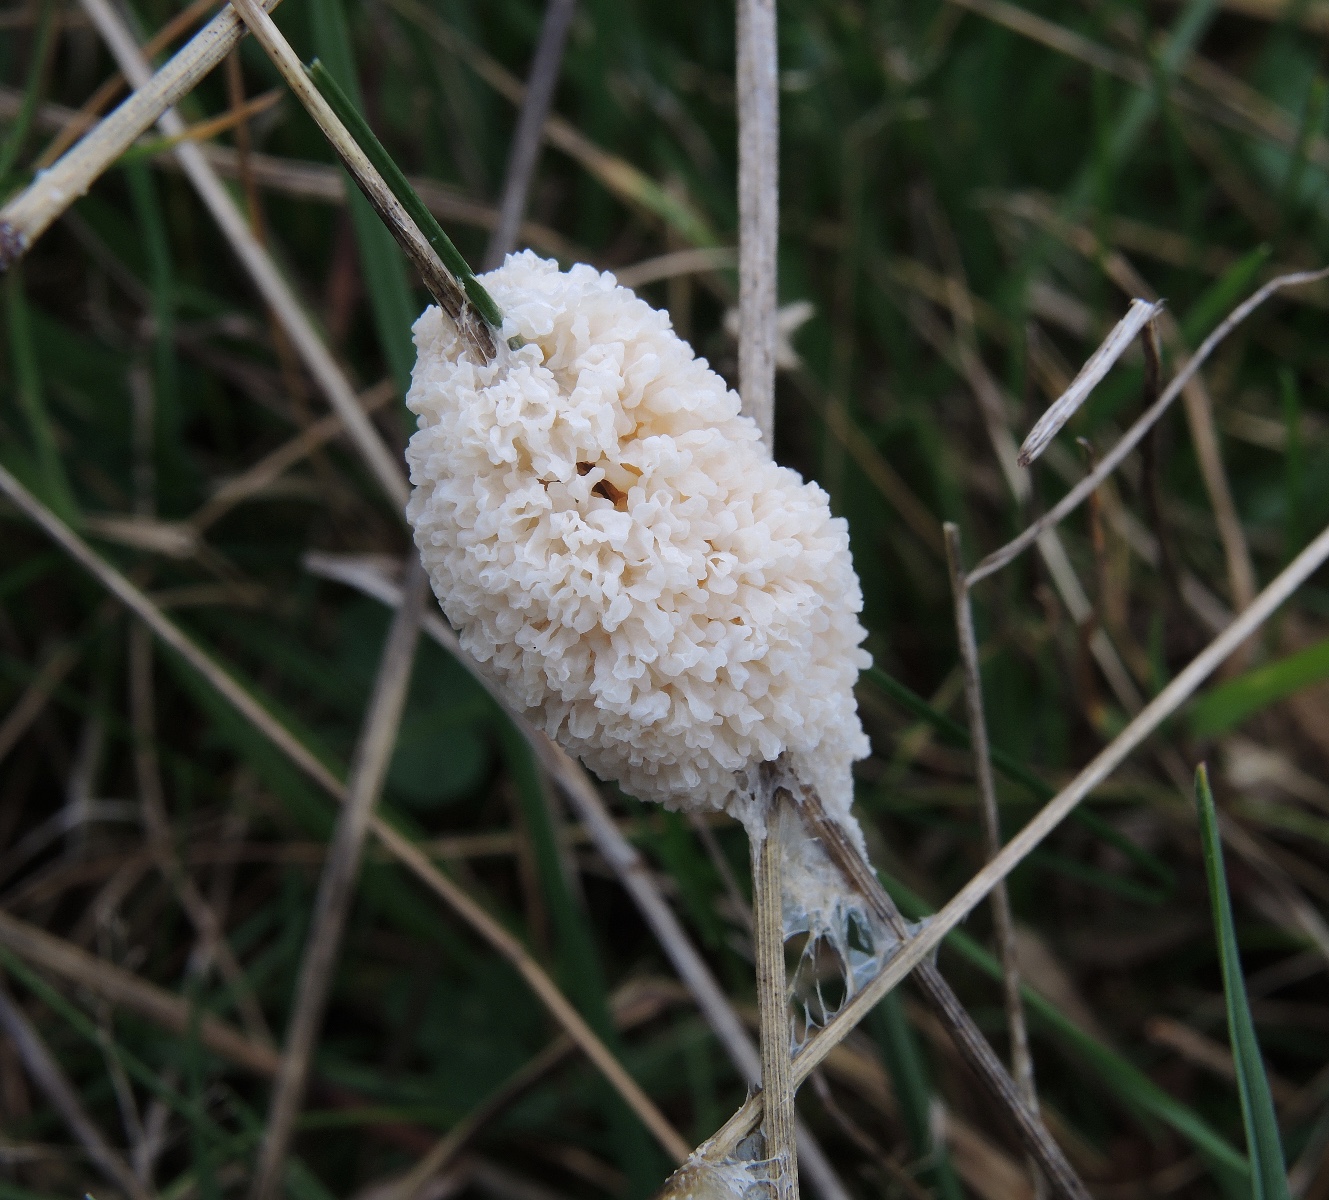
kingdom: Protozoa
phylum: Mycetozoa
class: Myxomycetes
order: Physarales
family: Physaraceae
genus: Didymium
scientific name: Didymium
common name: urteskum
